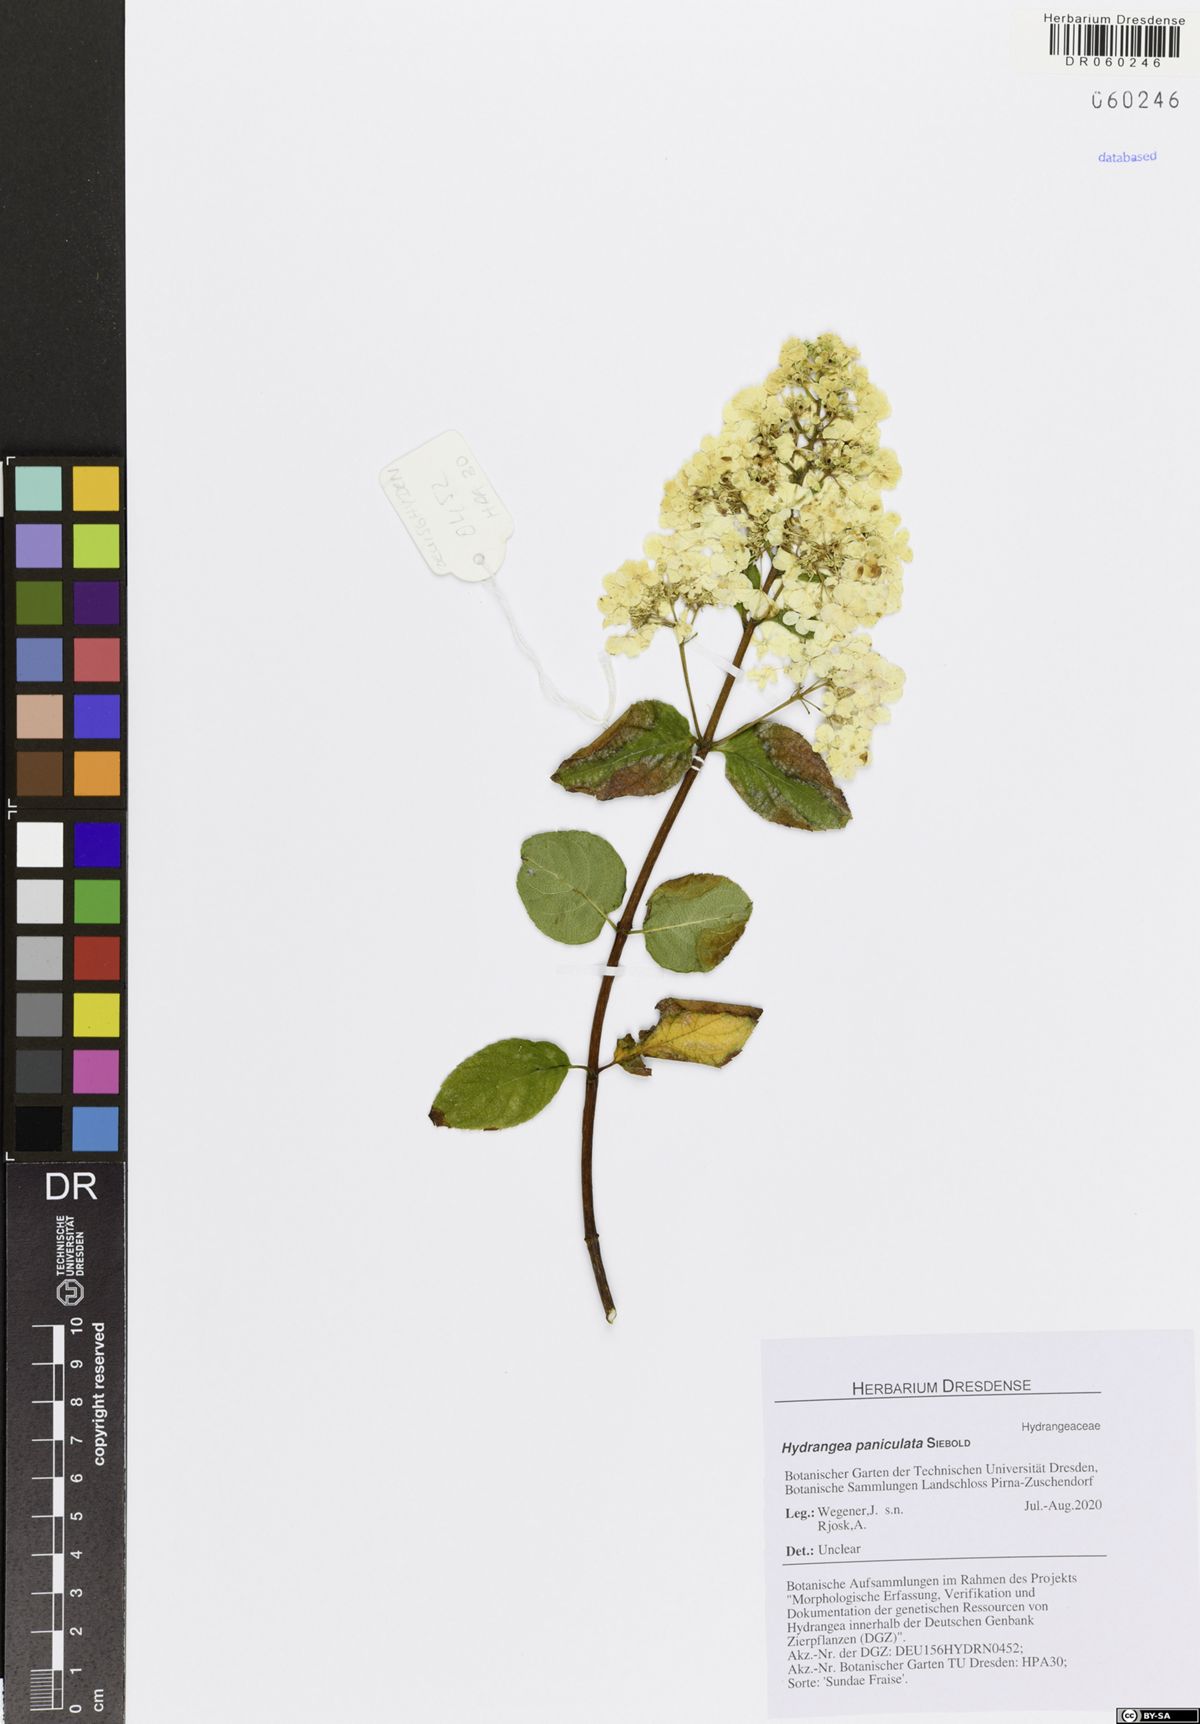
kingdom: Plantae
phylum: Tracheophyta
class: Magnoliopsida
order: Cornales
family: Hydrangeaceae
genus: Hydrangea
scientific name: Hydrangea paniculata
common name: Panicled hydrangea
